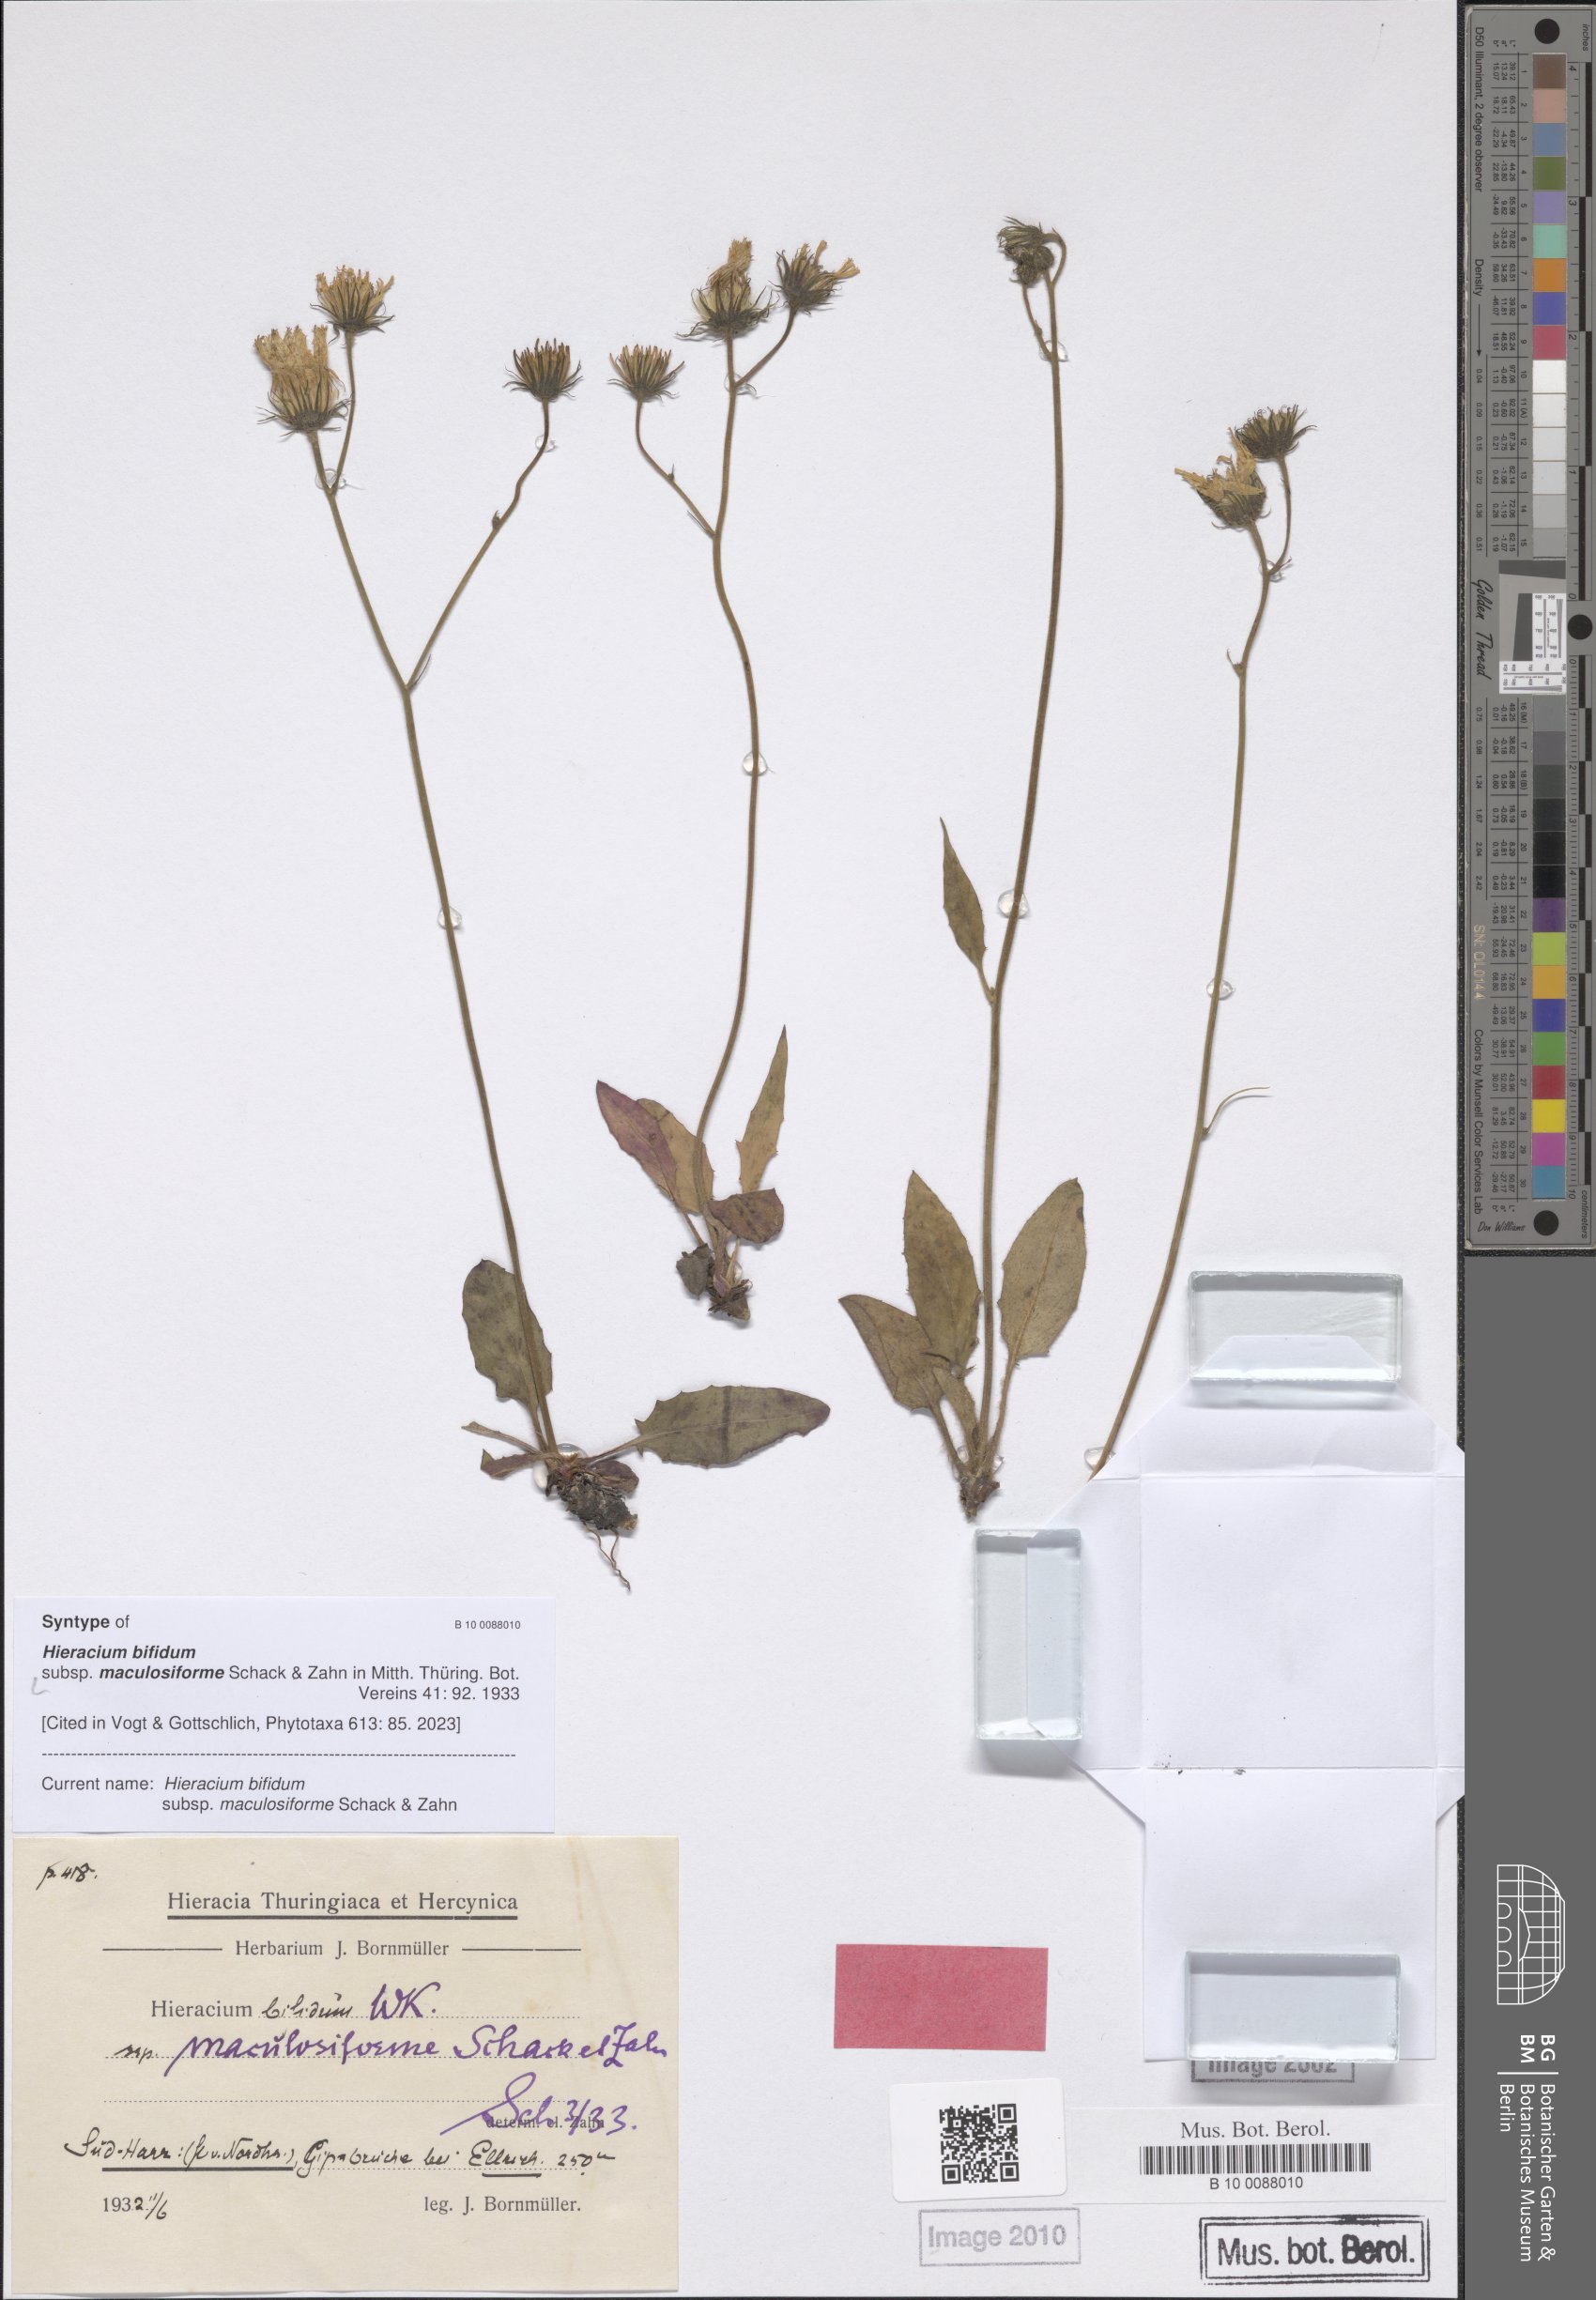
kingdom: Plantae
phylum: Tracheophyta
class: Magnoliopsida
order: Asterales
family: Asteraceae
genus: Hieracium
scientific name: Hieracium bifidum
